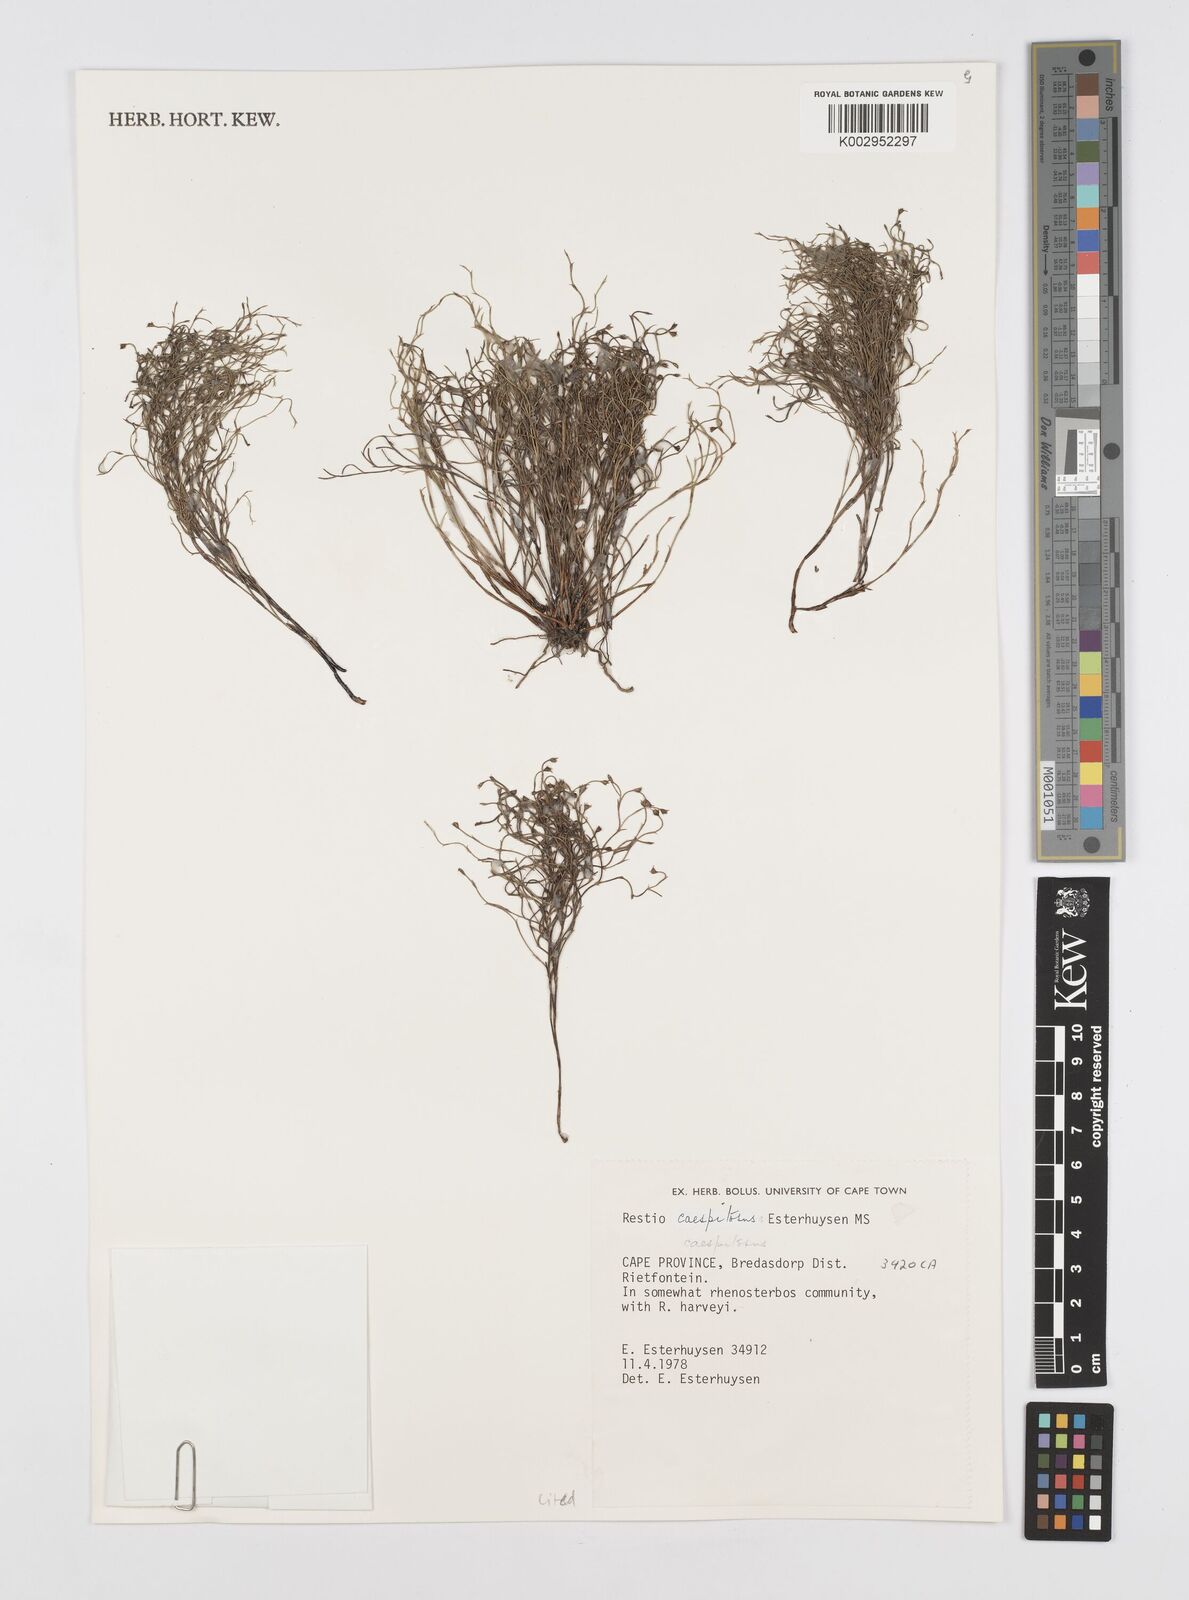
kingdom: Plantae
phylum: Tracheophyta
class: Liliopsida
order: Poales
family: Restionaceae
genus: Restio
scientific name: Restio caespitosus
